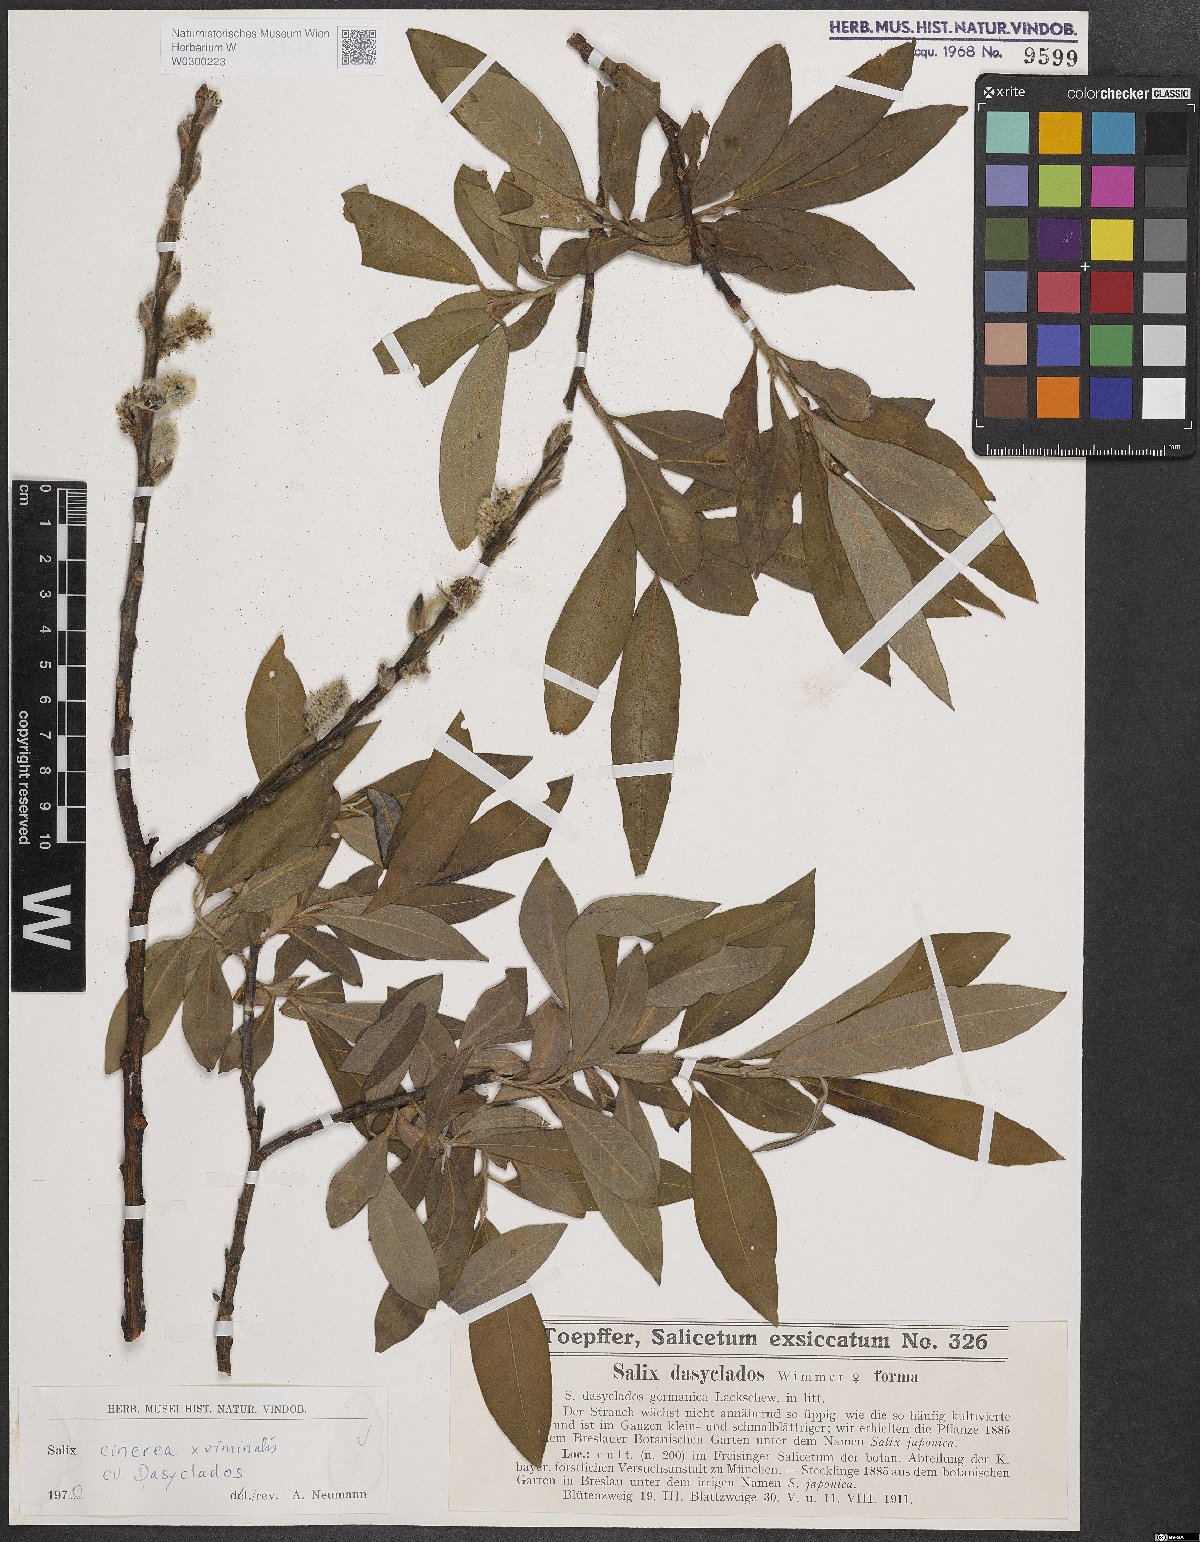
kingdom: Plantae
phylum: Tracheophyta
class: Magnoliopsida
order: Malpighiales
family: Salicaceae
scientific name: Salicaceae
